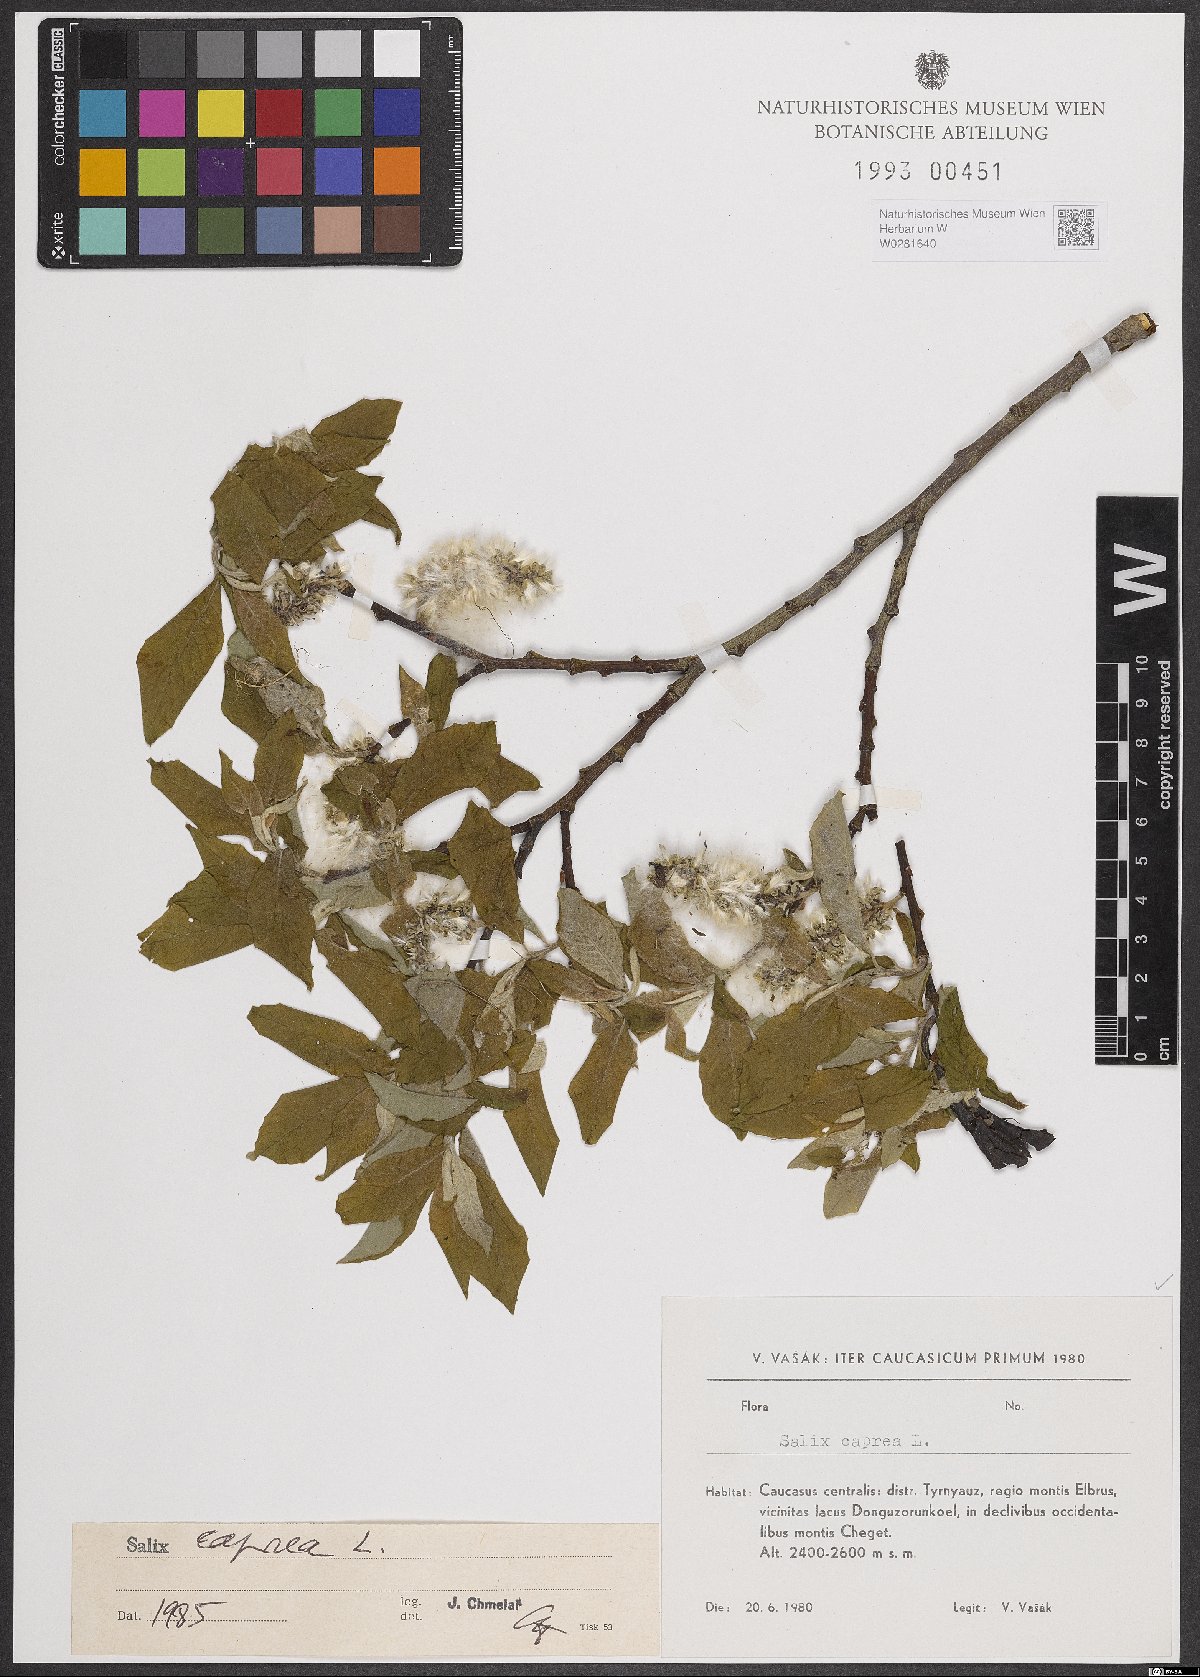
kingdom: Plantae
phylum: Tracheophyta
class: Magnoliopsida
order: Malpighiales
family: Salicaceae
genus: Salix
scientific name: Salix caprea
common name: Goat willow
